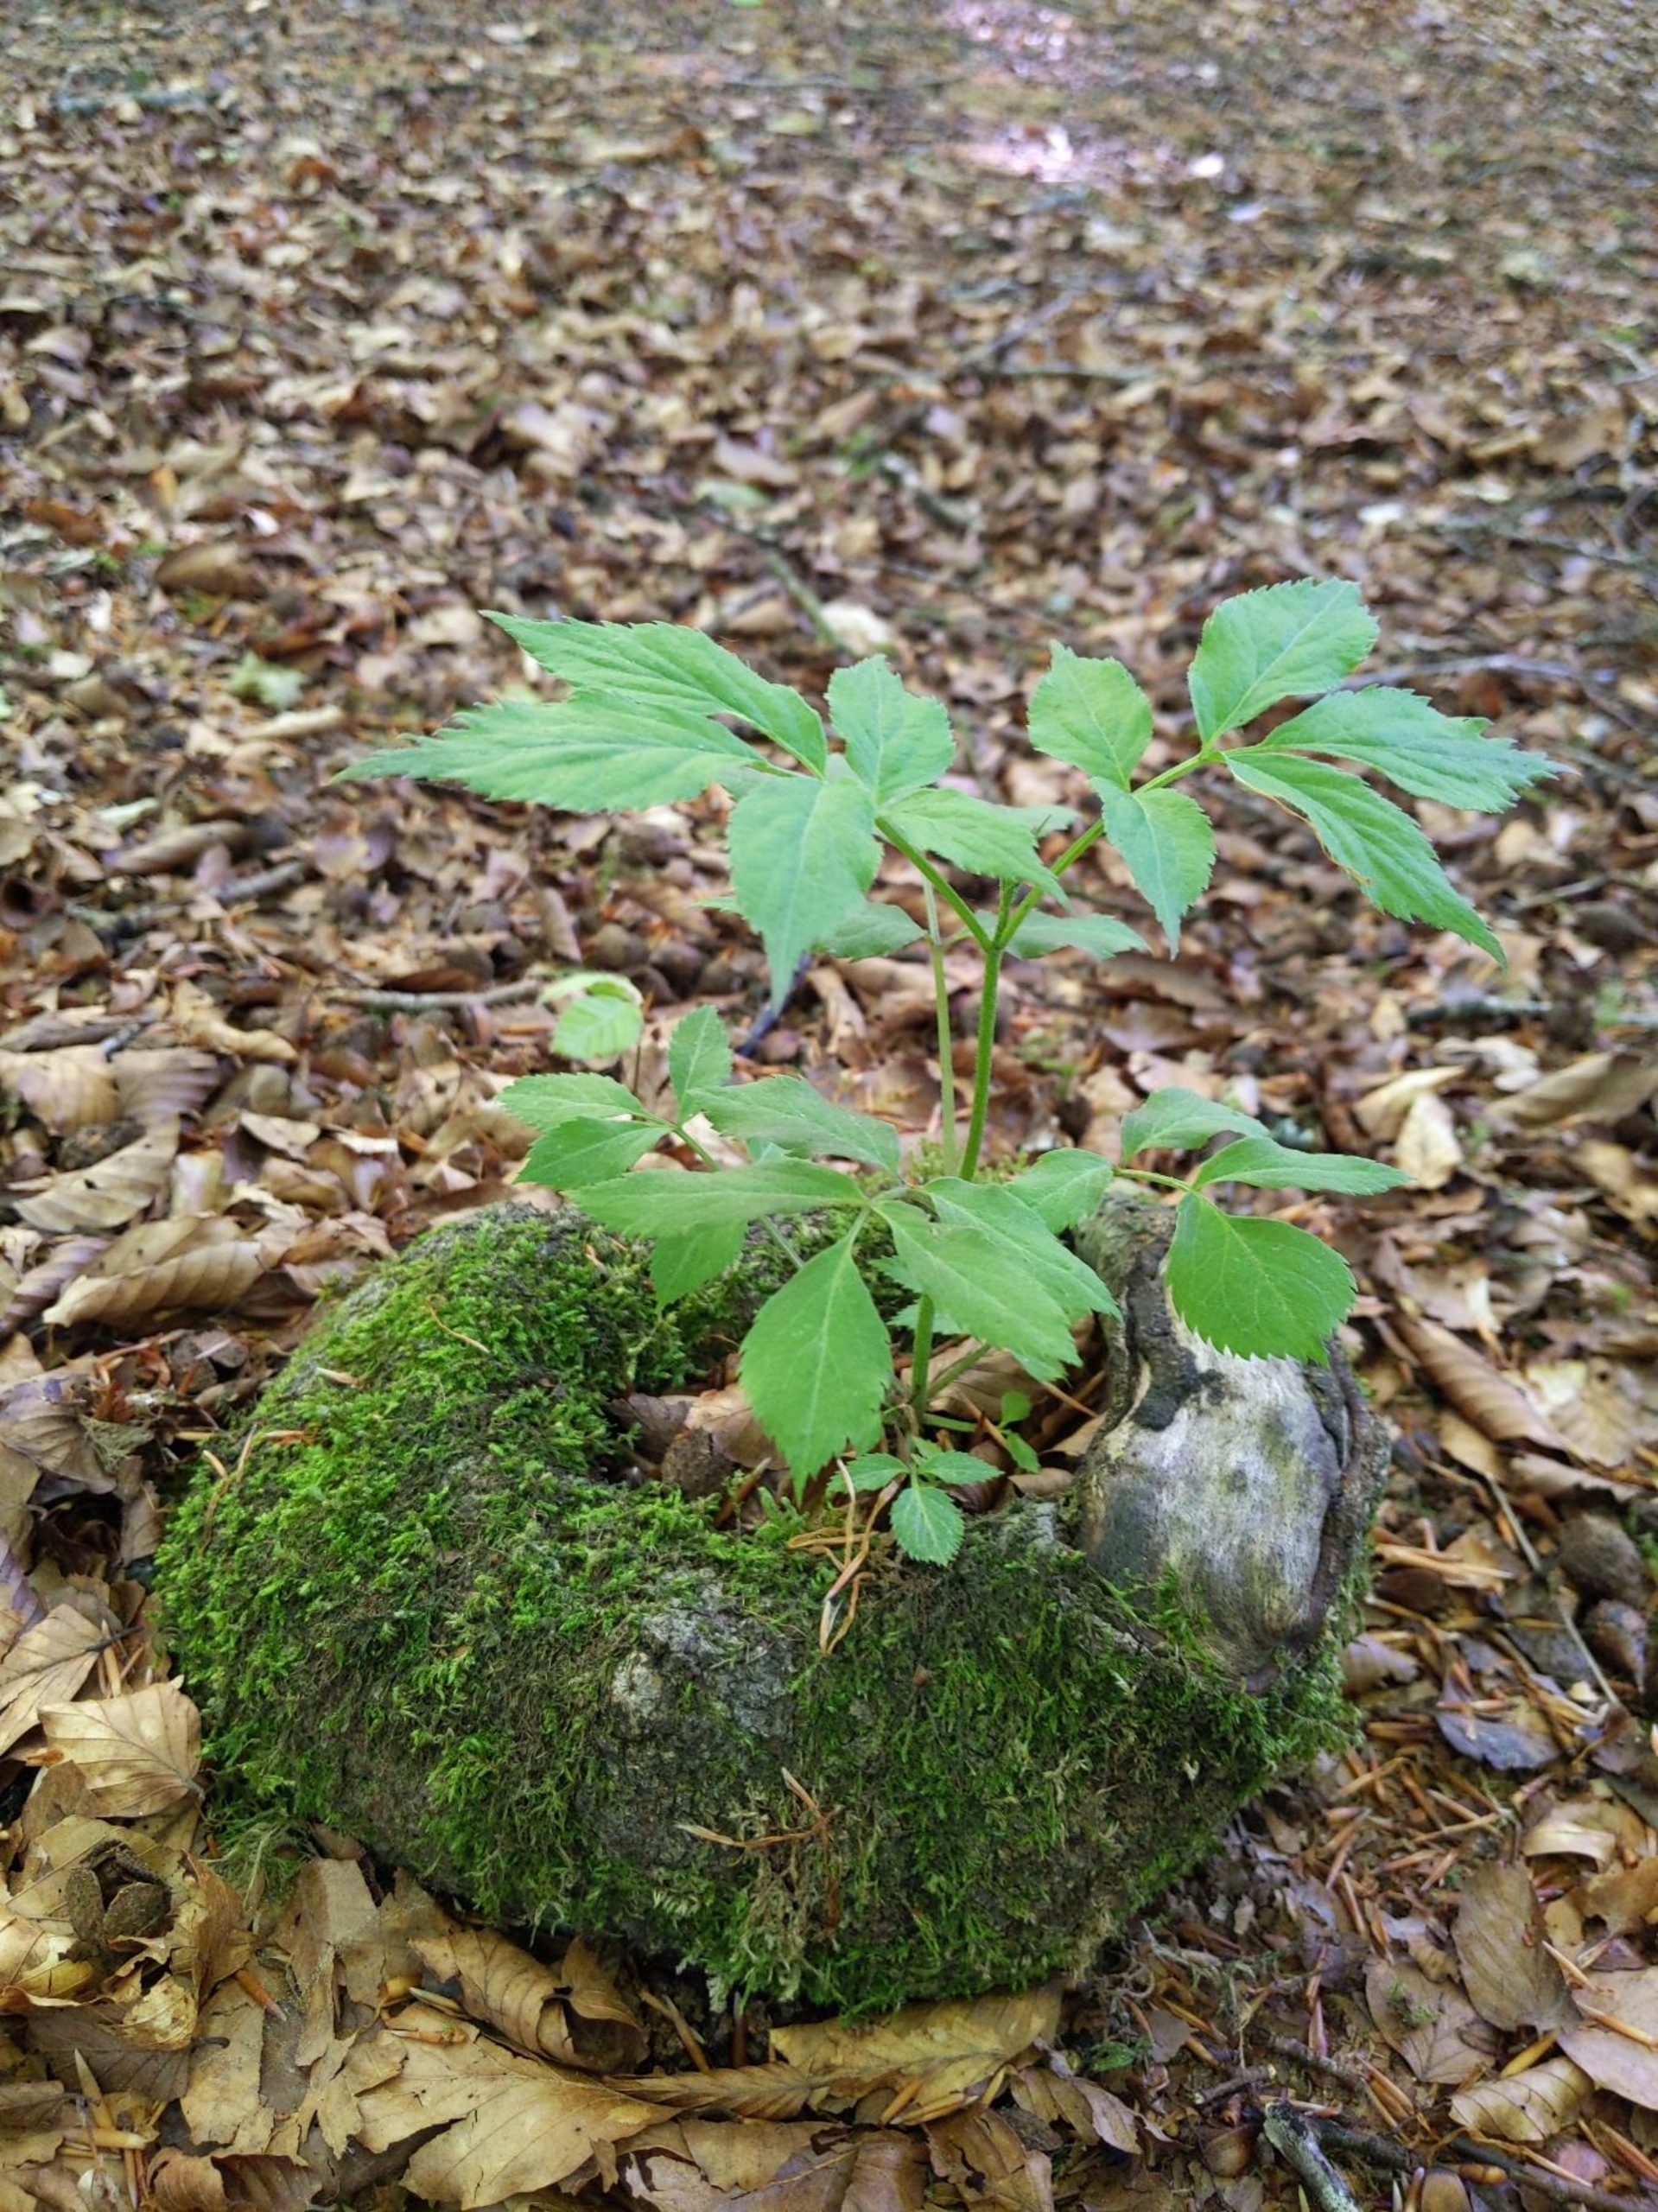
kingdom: Plantae
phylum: Tracheophyta
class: Magnoliopsida
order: Dipsacales
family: Viburnaceae
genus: Sambucus
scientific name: Sambucus nigra
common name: Almindelig hyld
